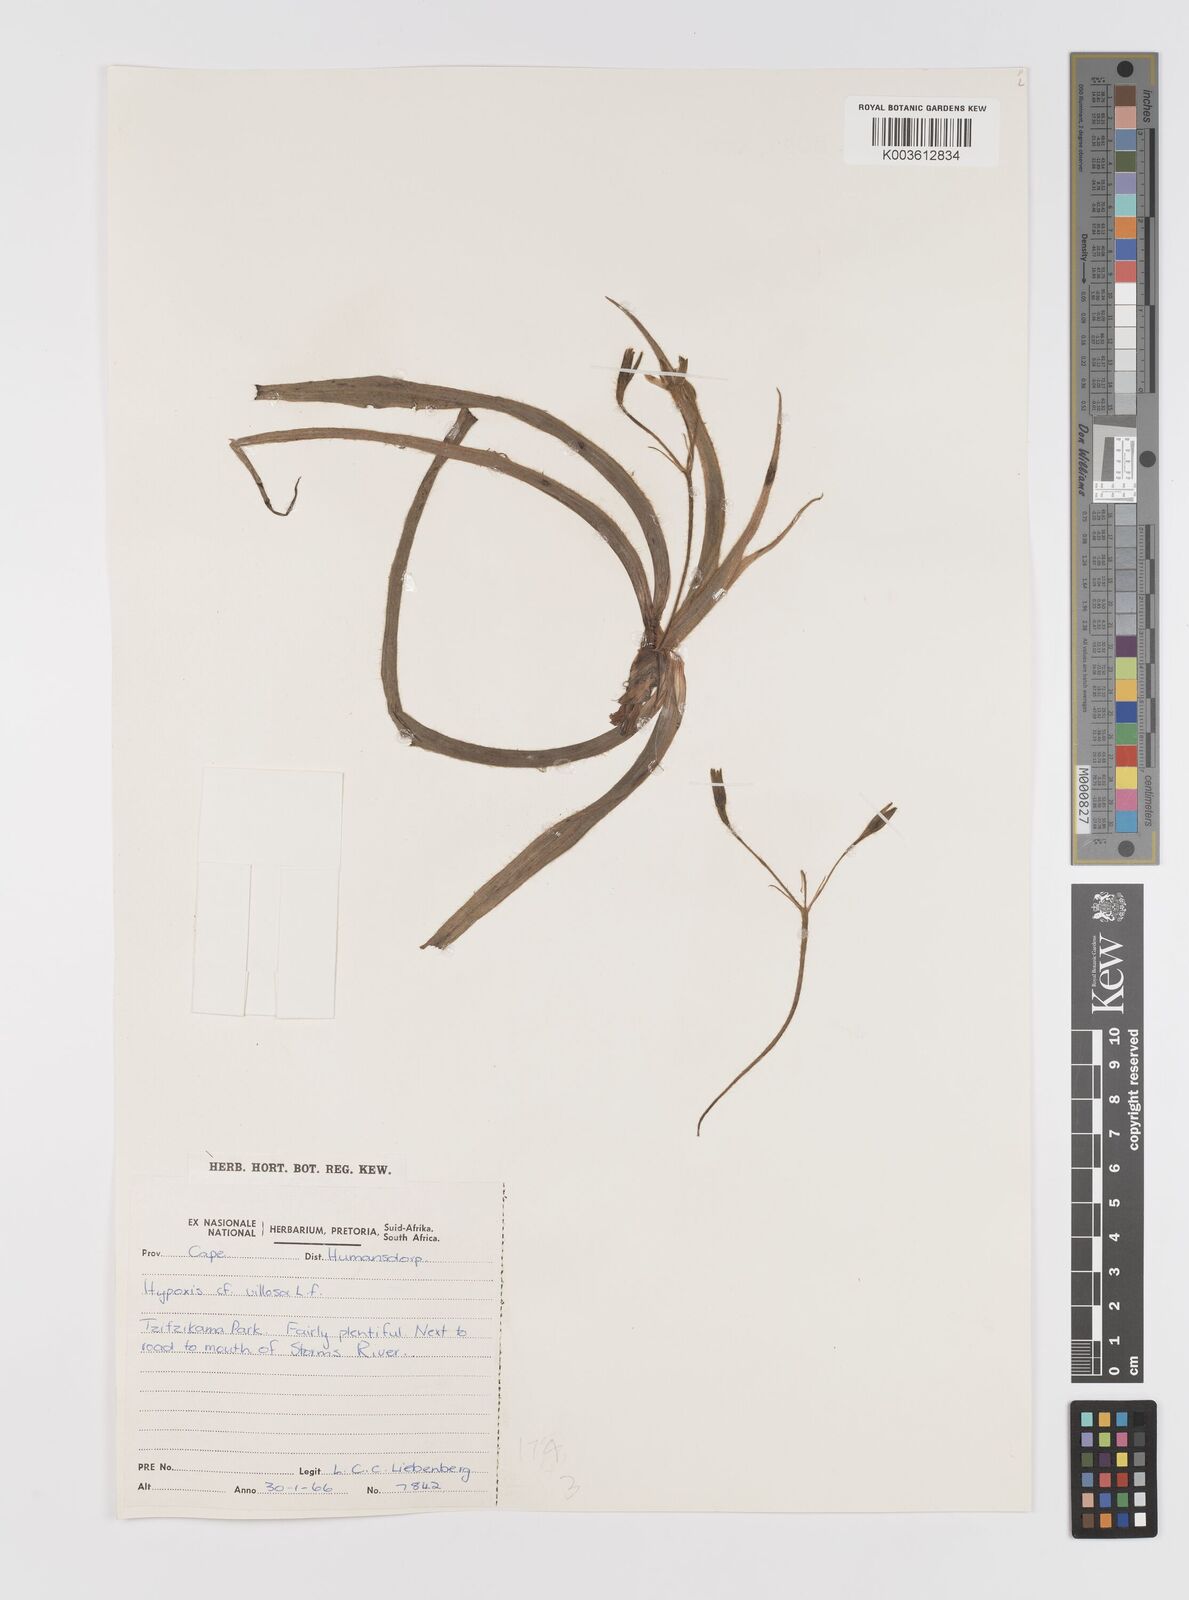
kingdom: Plantae
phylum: Tracheophyta
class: Liliopsida
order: Asparagales
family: Hypoxidaceae
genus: Hypoxis
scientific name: Hypoxis villosa
